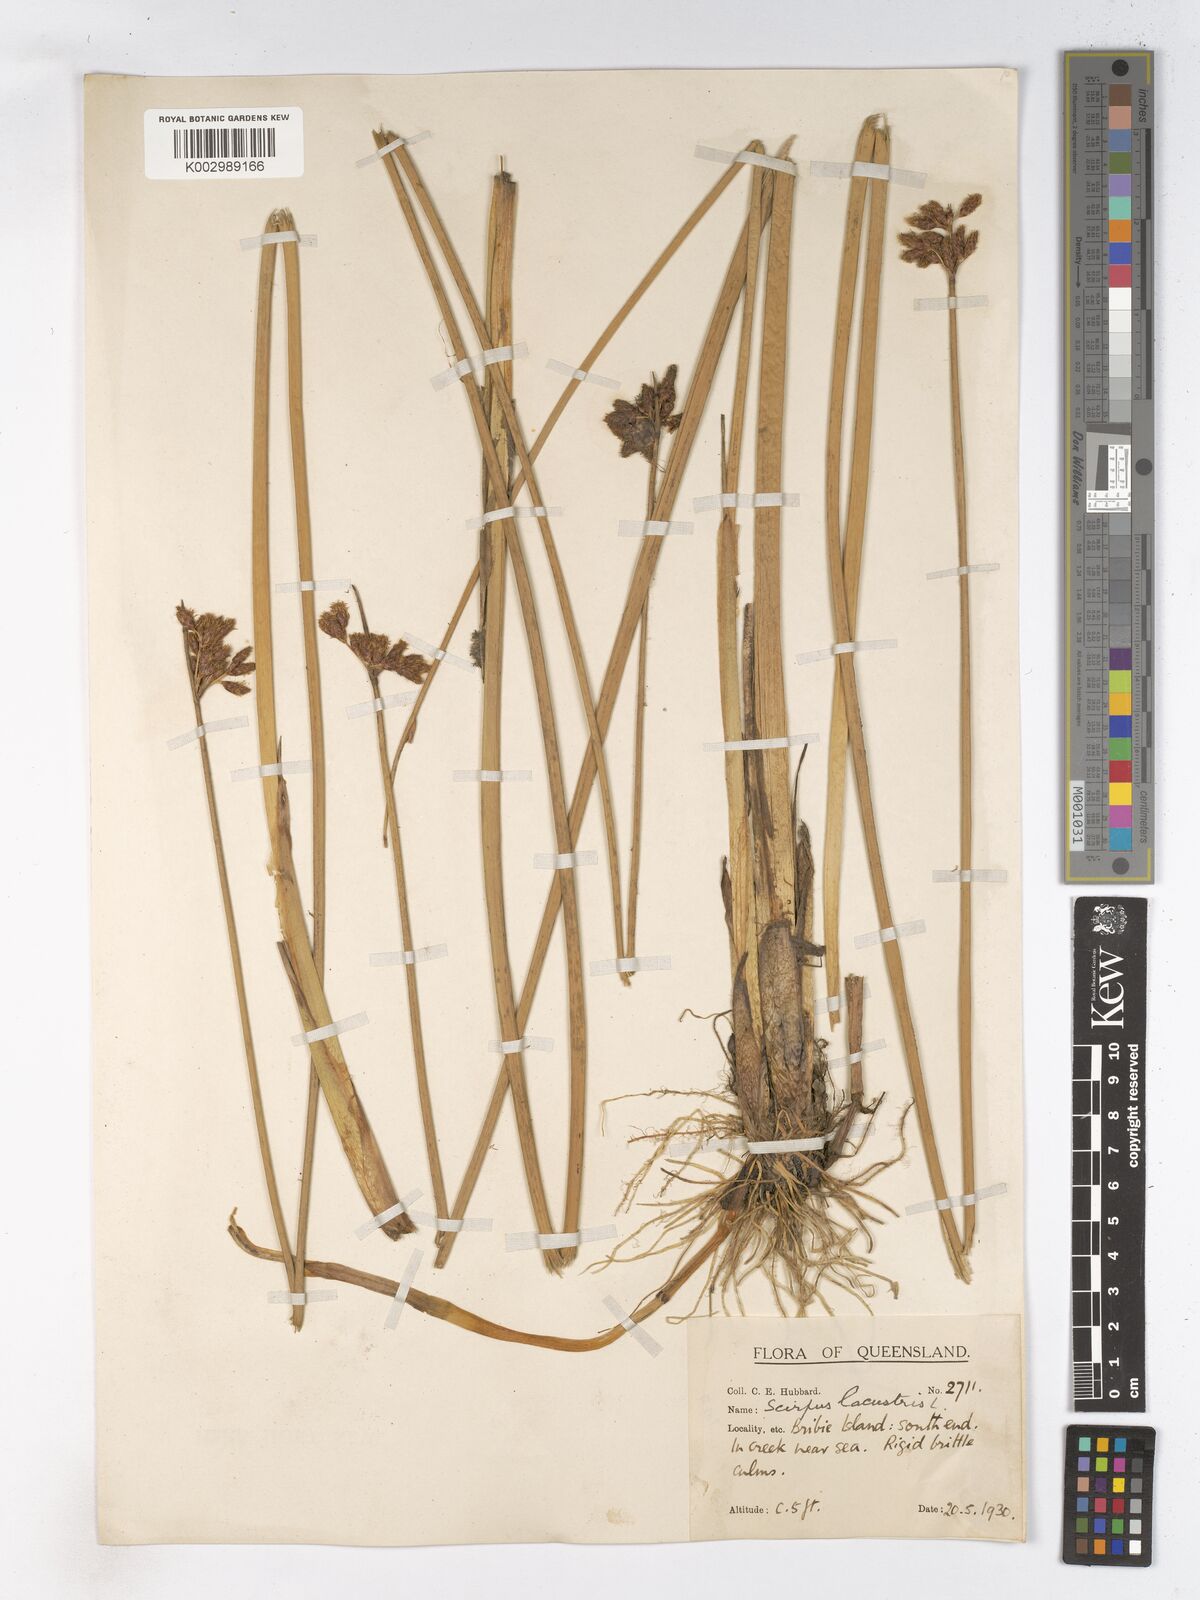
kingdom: Plantae
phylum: Tracheophyta
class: Liliopsida
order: Poales
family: Cyperaceae
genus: Schoenoplectus
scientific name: Schoenoplectus lacustris
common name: Common club-rush
